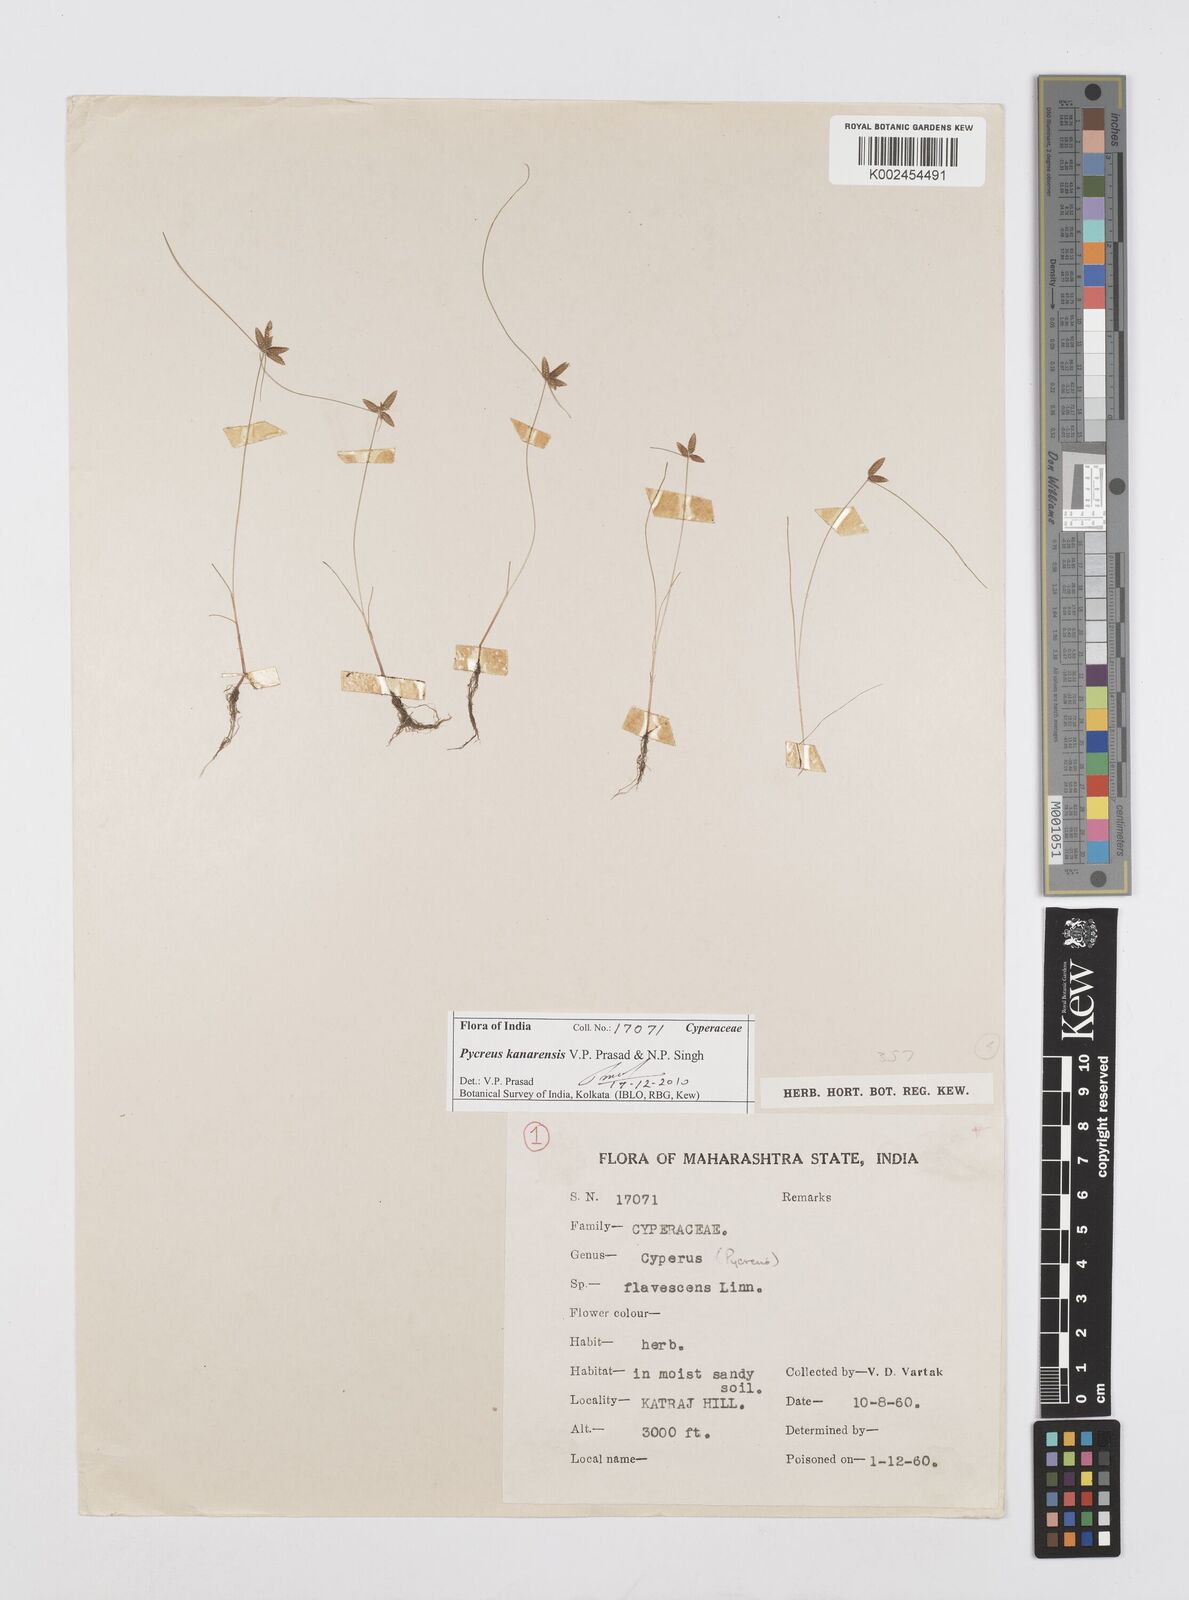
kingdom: Plantae
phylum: Tracheophyta
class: Liliopsida
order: Poales
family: Cyperaceae
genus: Cyperus
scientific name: Cyperus flavescens
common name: Yellow galingale
